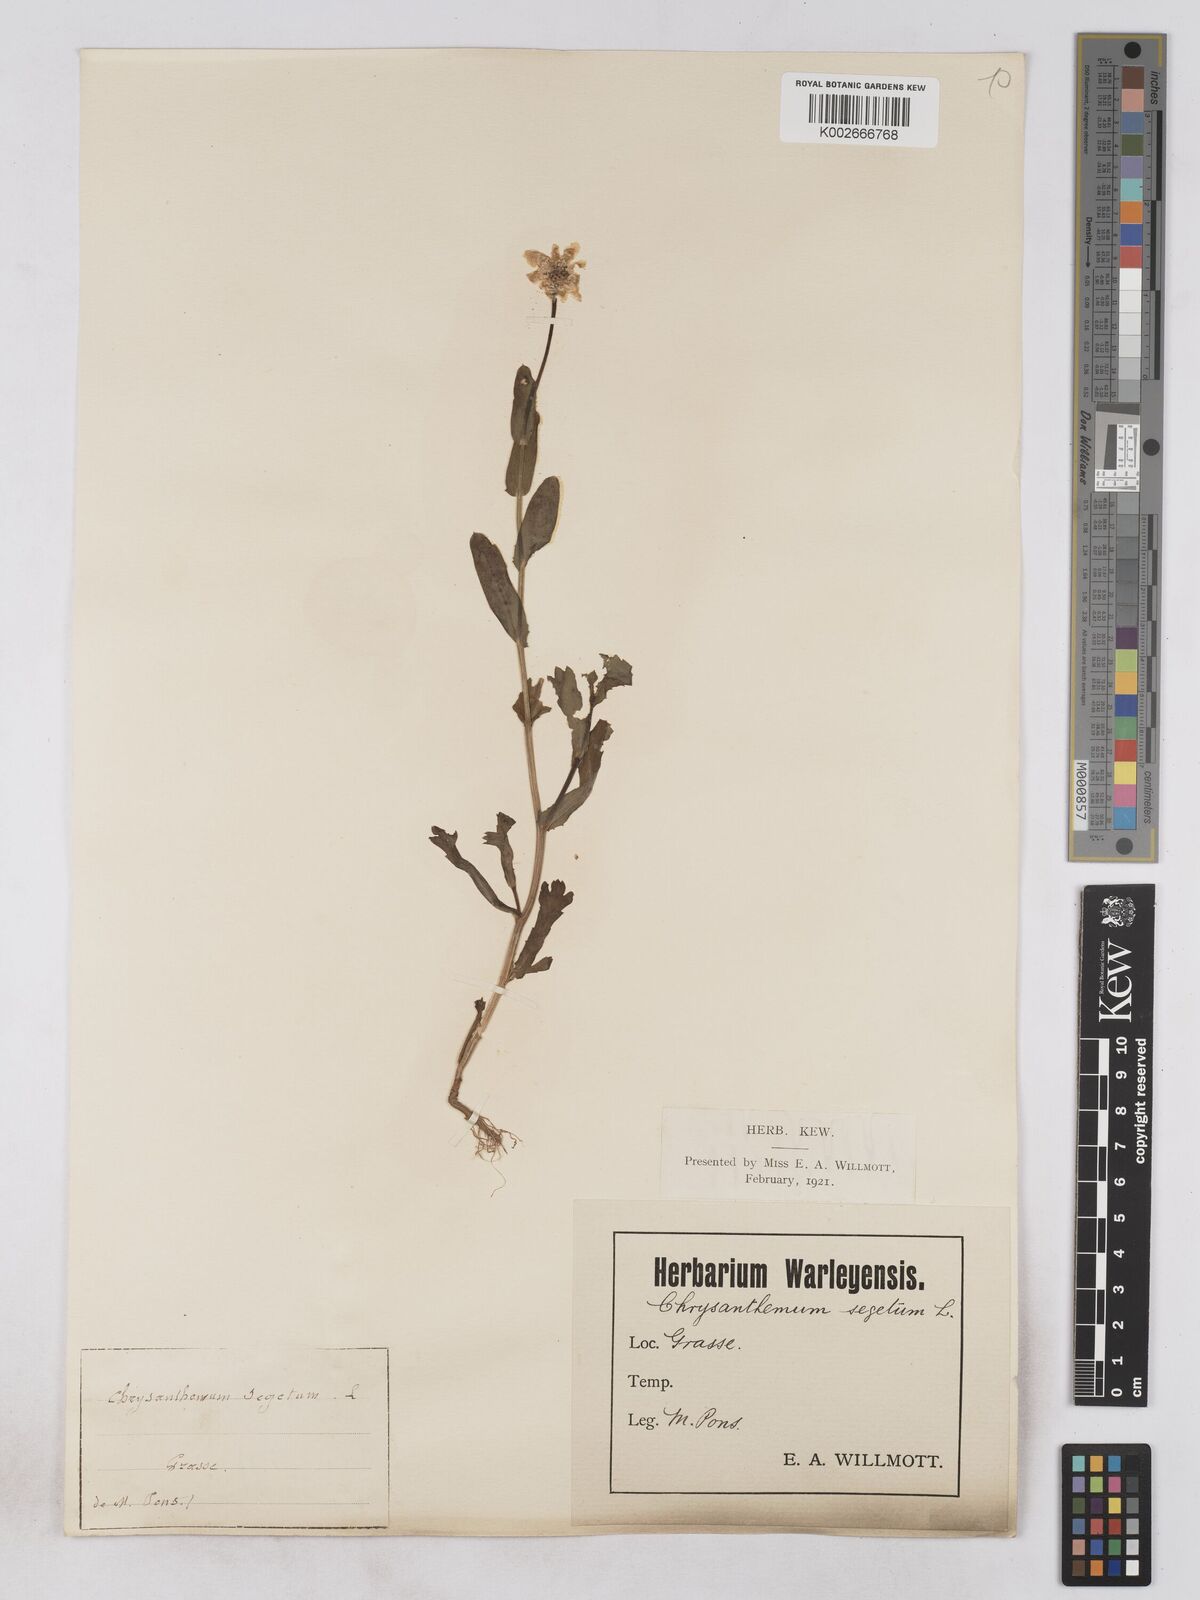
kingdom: Plantae
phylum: Tracheophyta
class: Magnoliopsida
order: Asterales
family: Asteraceae
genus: Glebionis
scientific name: Glebionis segetum
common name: Corndaisy
